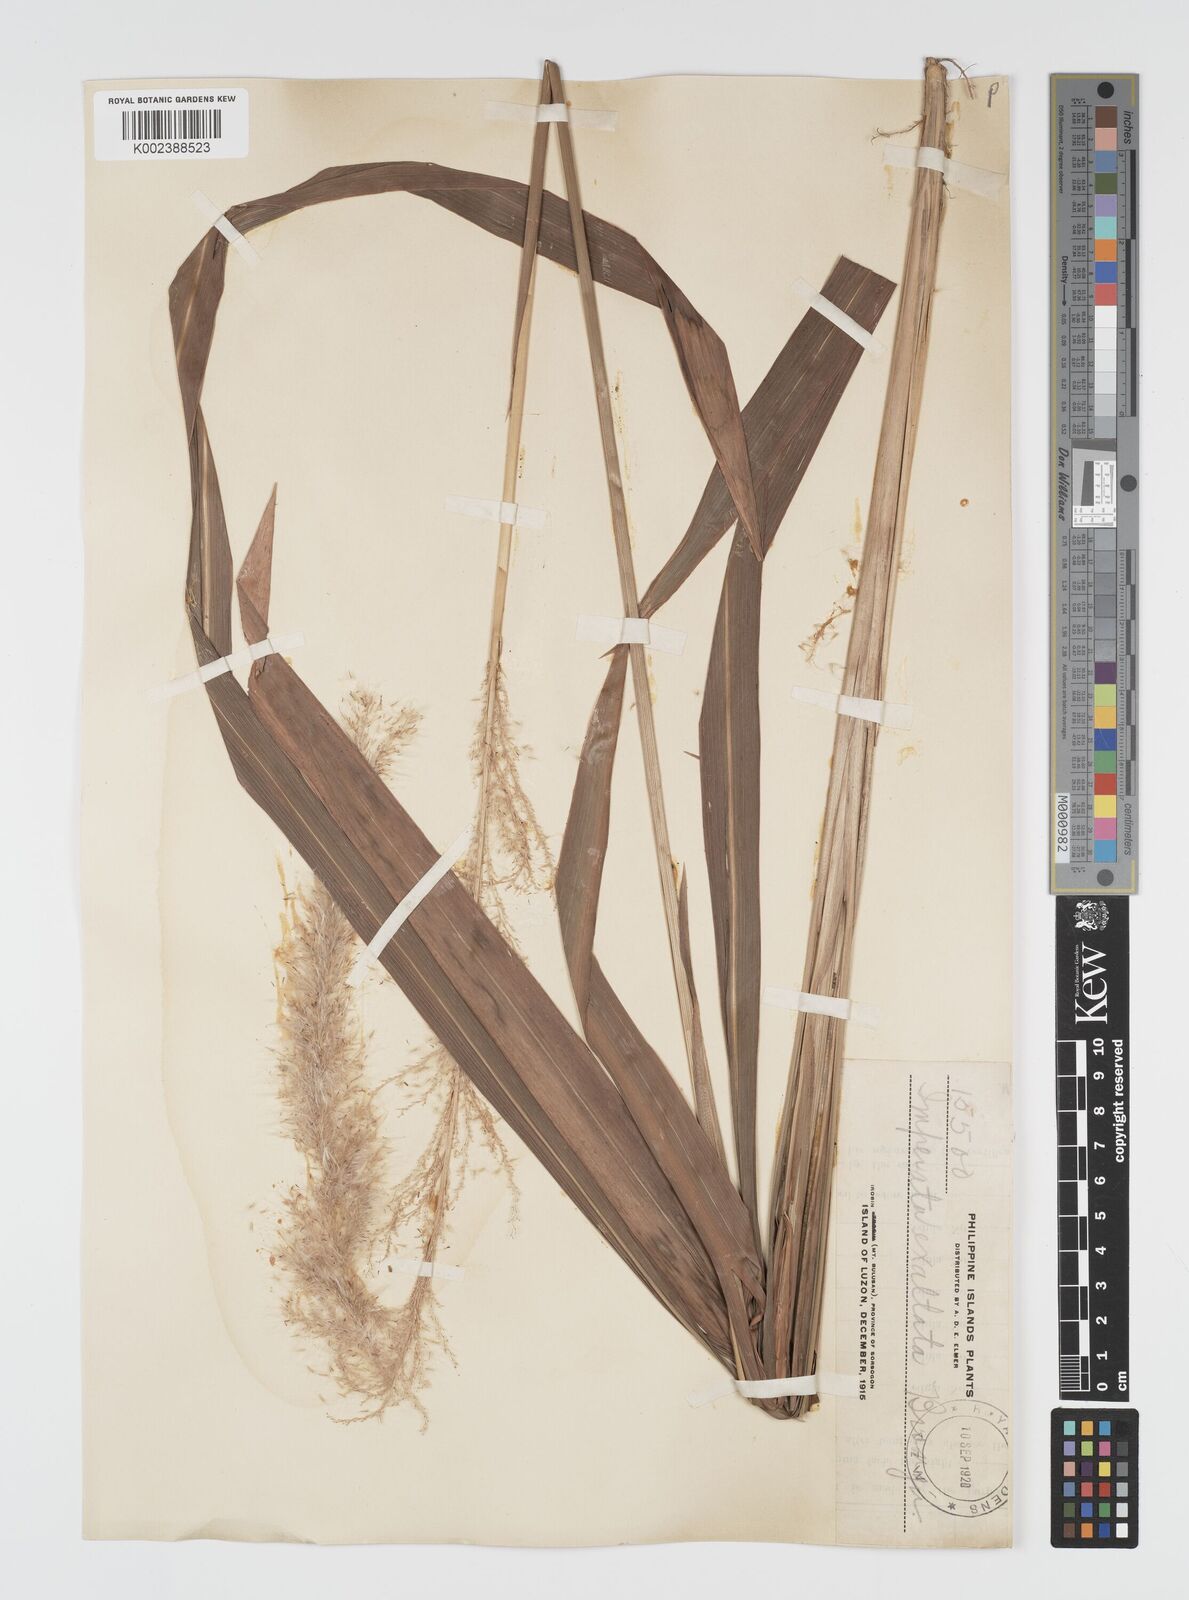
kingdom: Plantae
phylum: Tracheophyta
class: Liliopsida
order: Poales
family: Poaceae
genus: Imperata
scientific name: Imperata conferta
